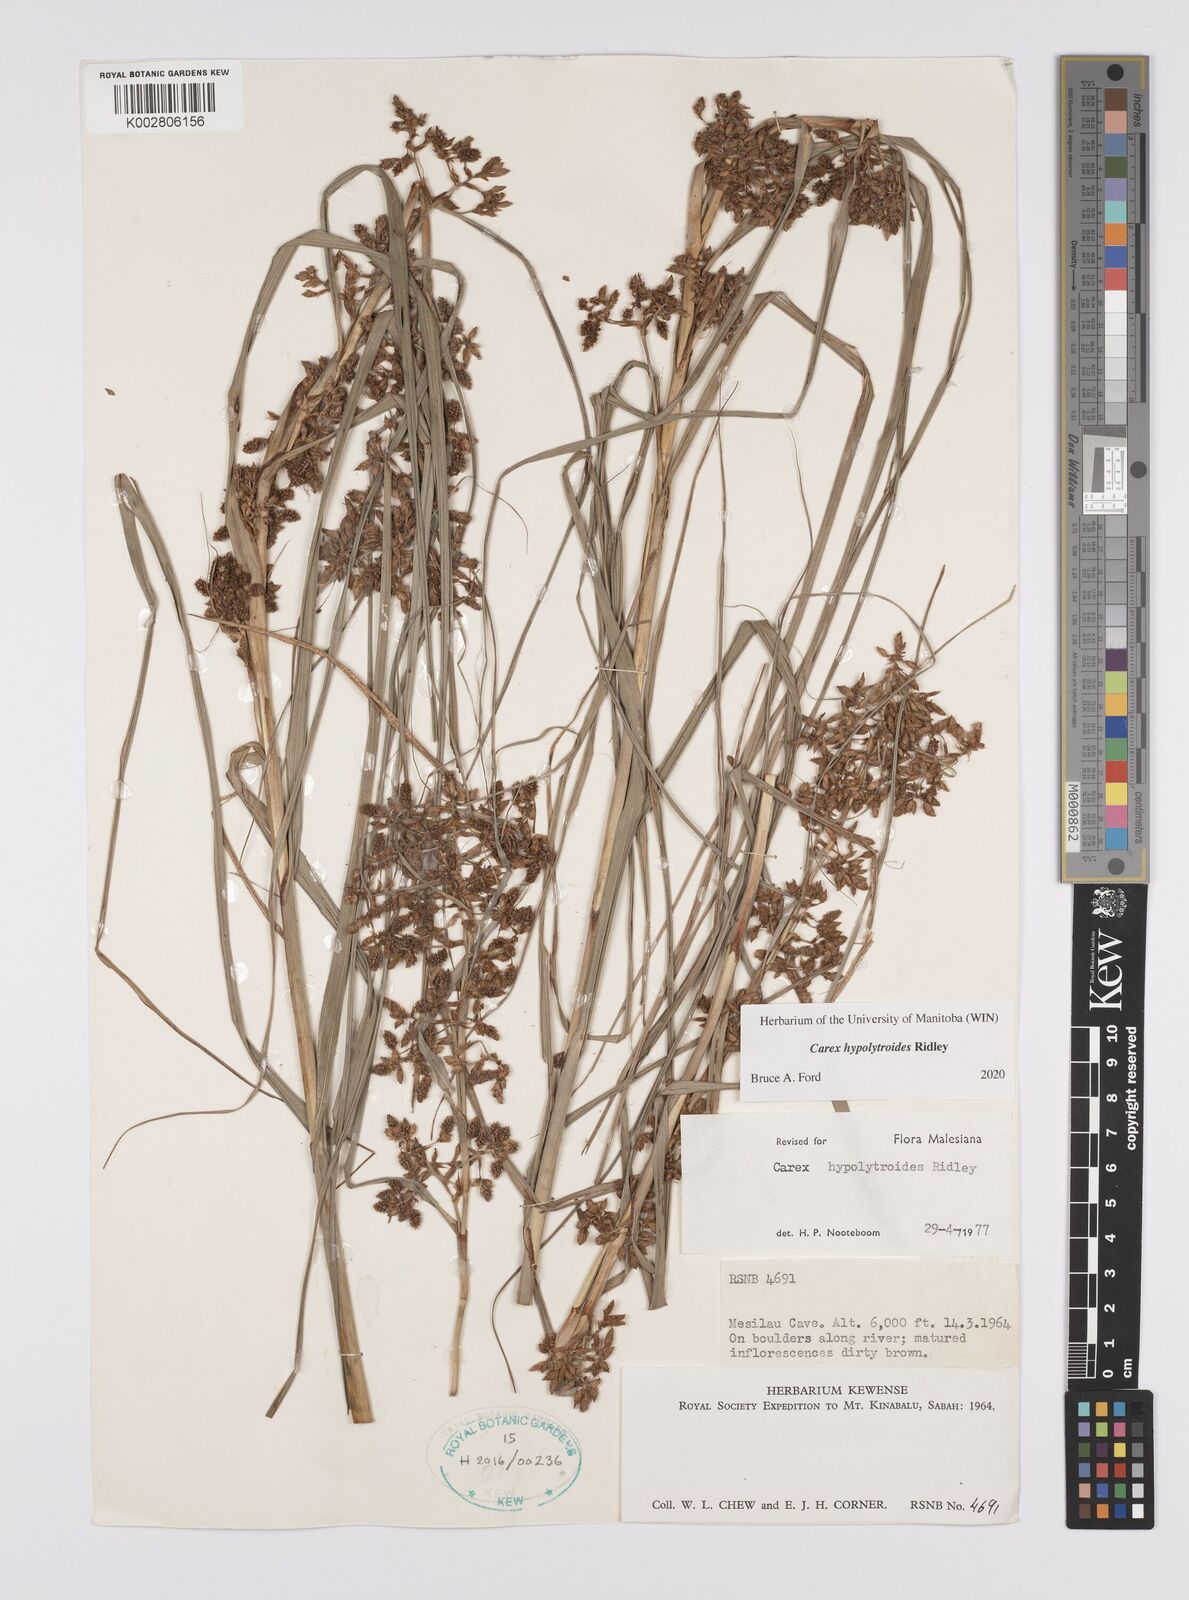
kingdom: Plantae
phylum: Tracheophyta
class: Liliopsida
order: Poales
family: Cyperaceae
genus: Carex
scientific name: Carex hypolytroides
